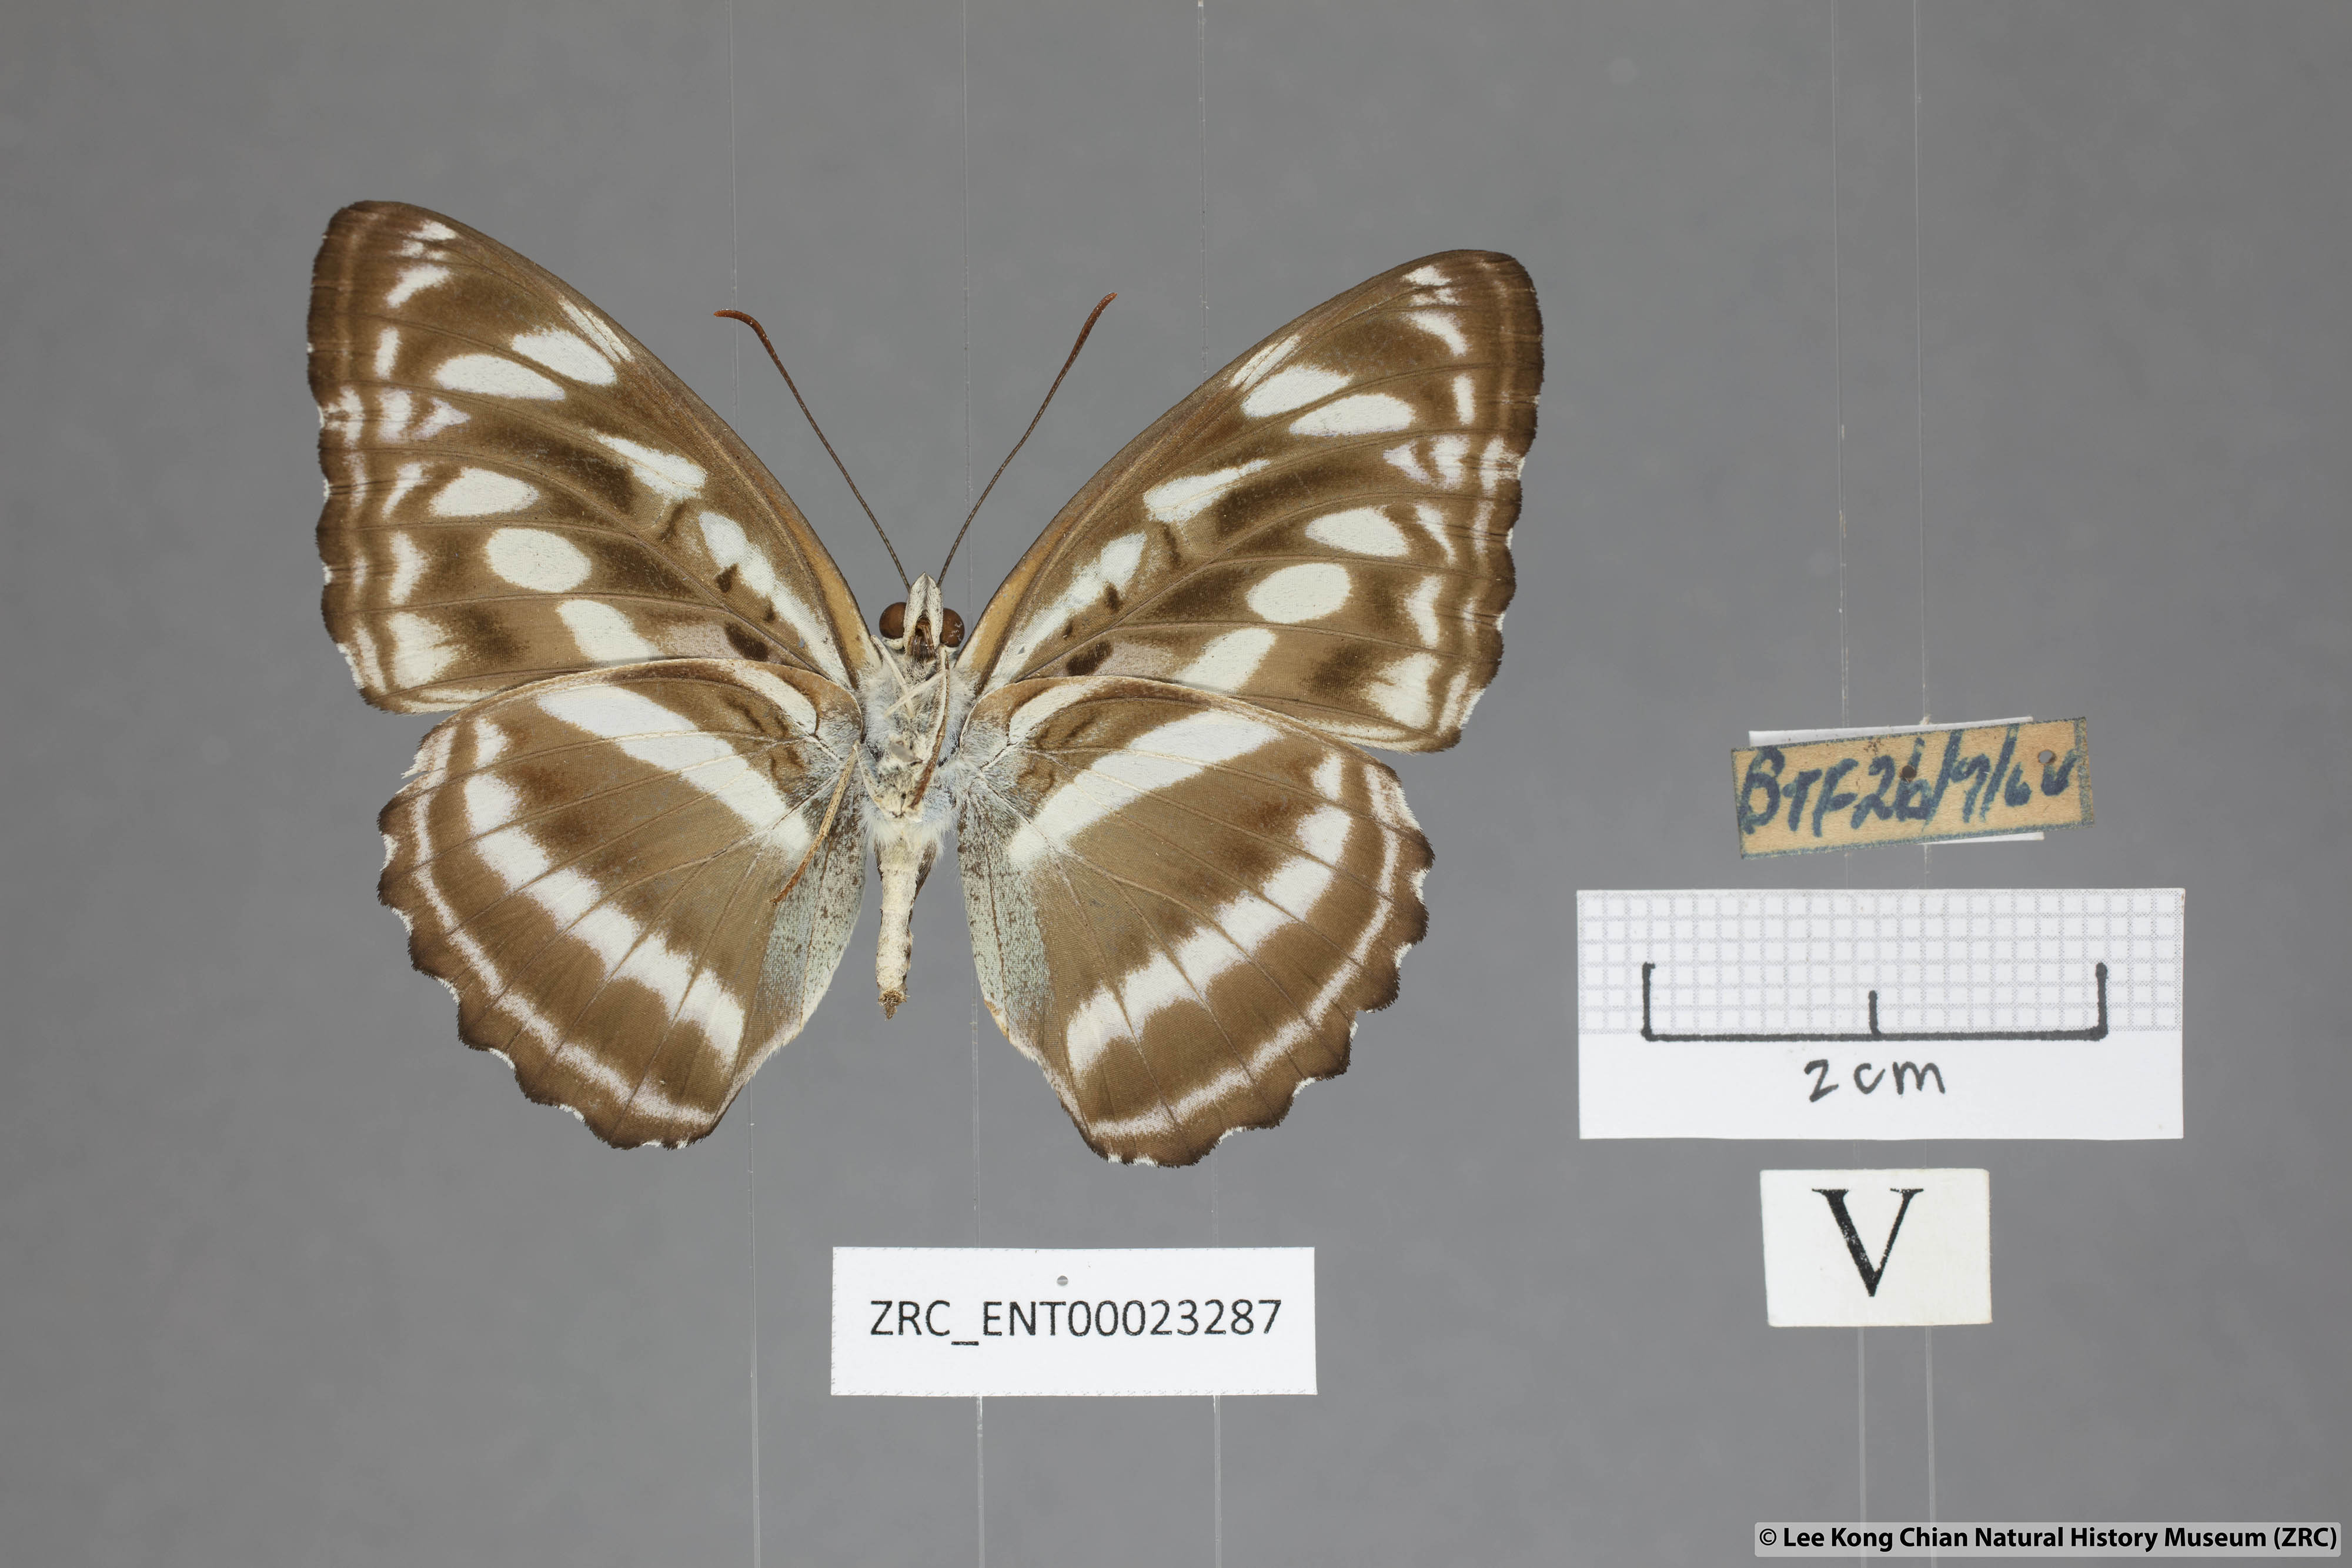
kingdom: Animalia
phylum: Arthropoda
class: Insecta
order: Lepidoptera
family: Nymphalidae
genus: Parathyma
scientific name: Parathyma selenophora
